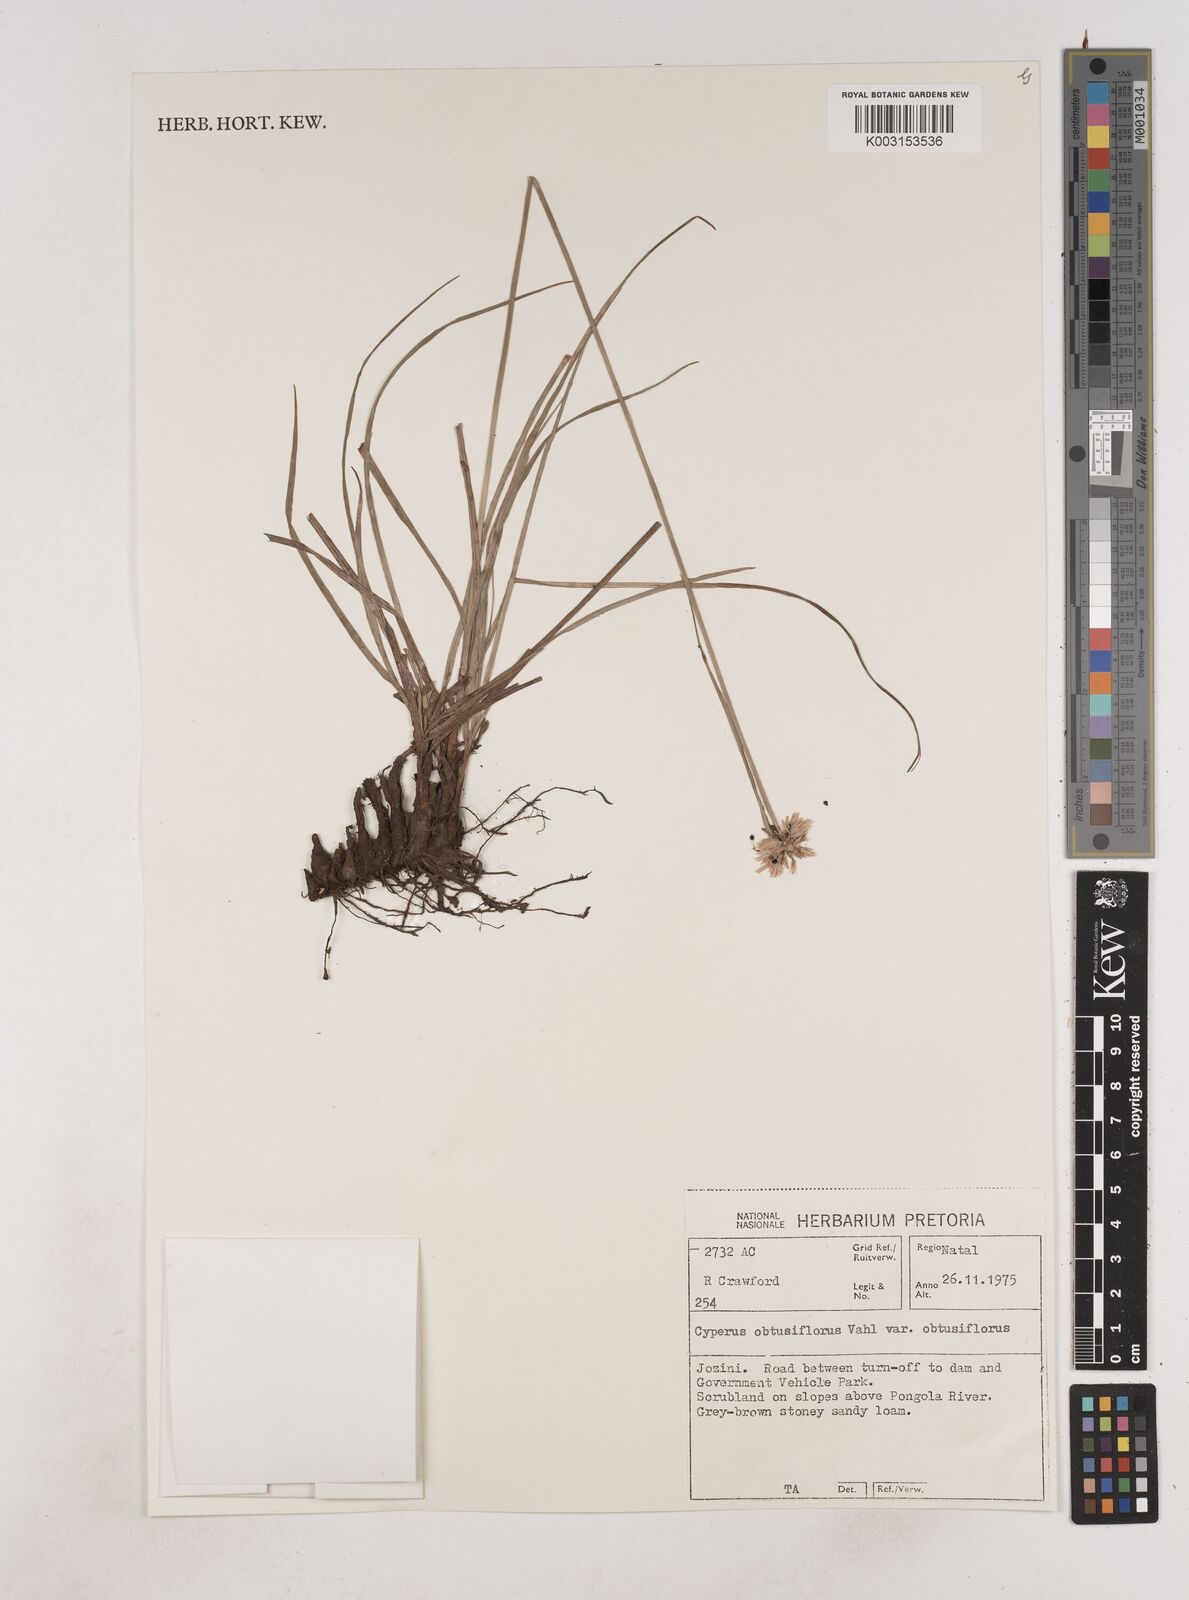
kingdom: Plantae
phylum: Tracheophyta
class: Liliopsida
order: Poales
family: Cyperaceae
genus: Cyperus
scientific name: Cyperus niveus
